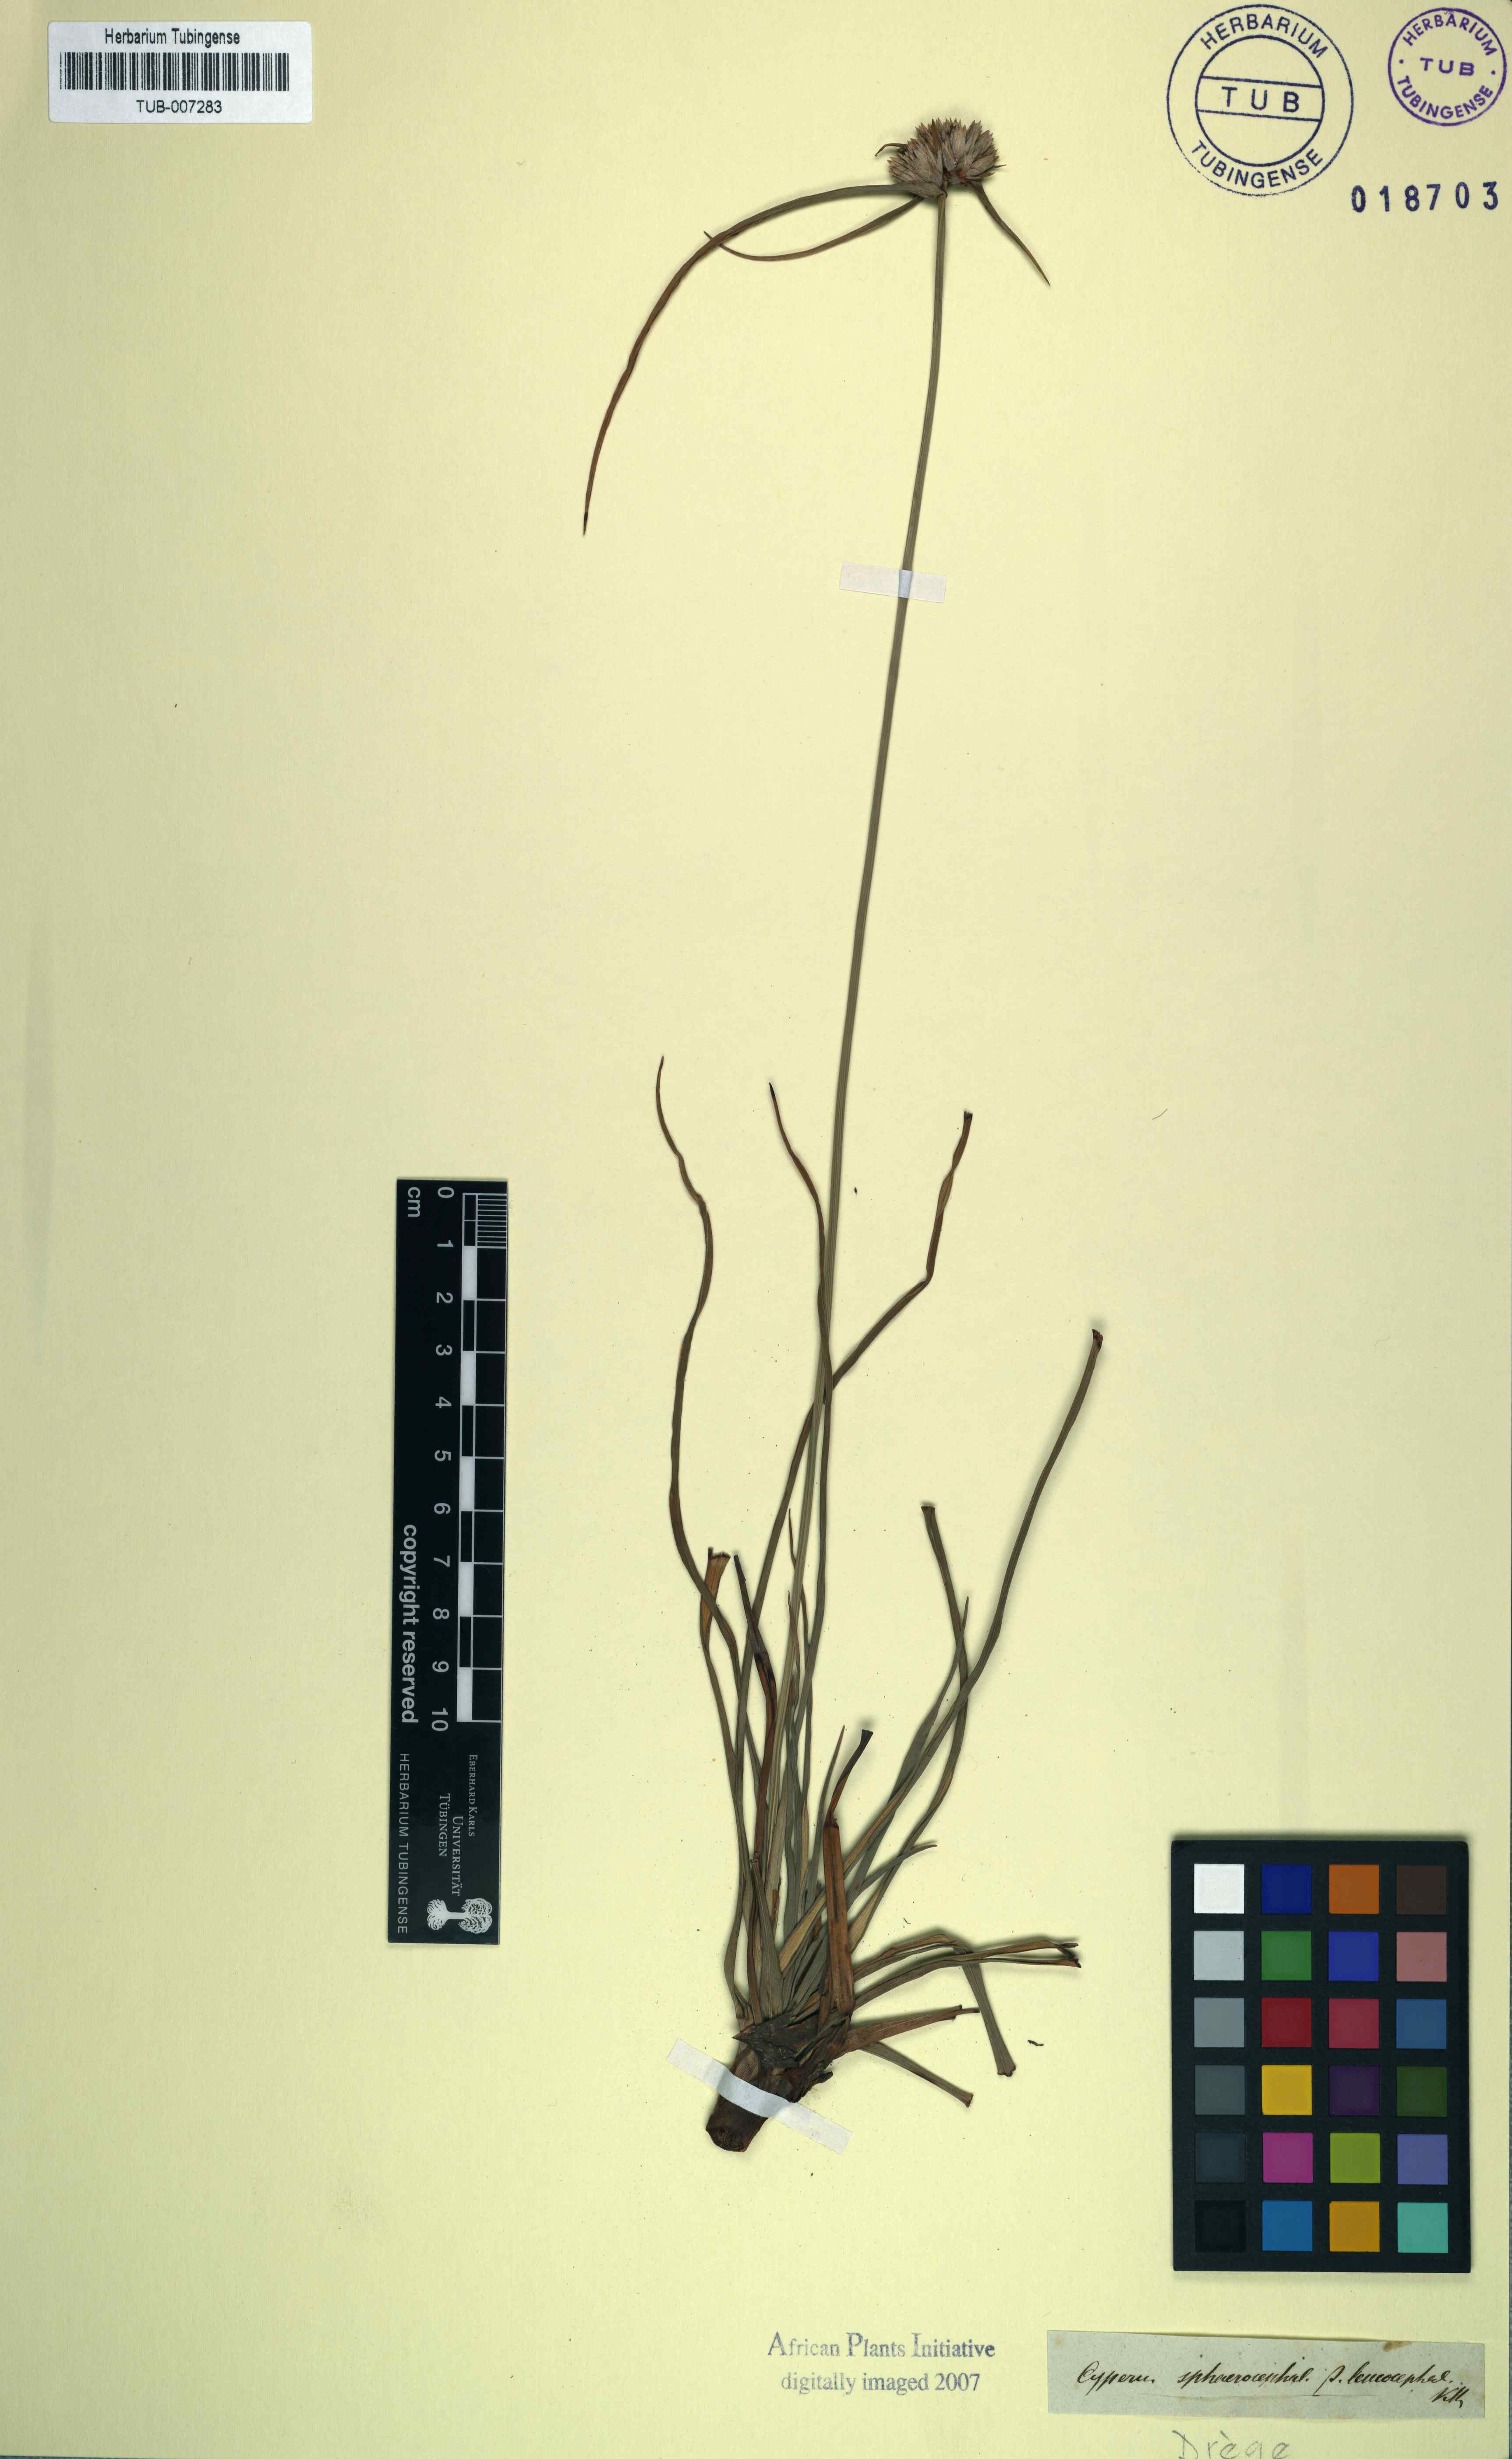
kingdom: Plantae
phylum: Tracheophyta
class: Liliopsida
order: Poales
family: Cyperaceae
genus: Cyperus
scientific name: Cyperus niveus
